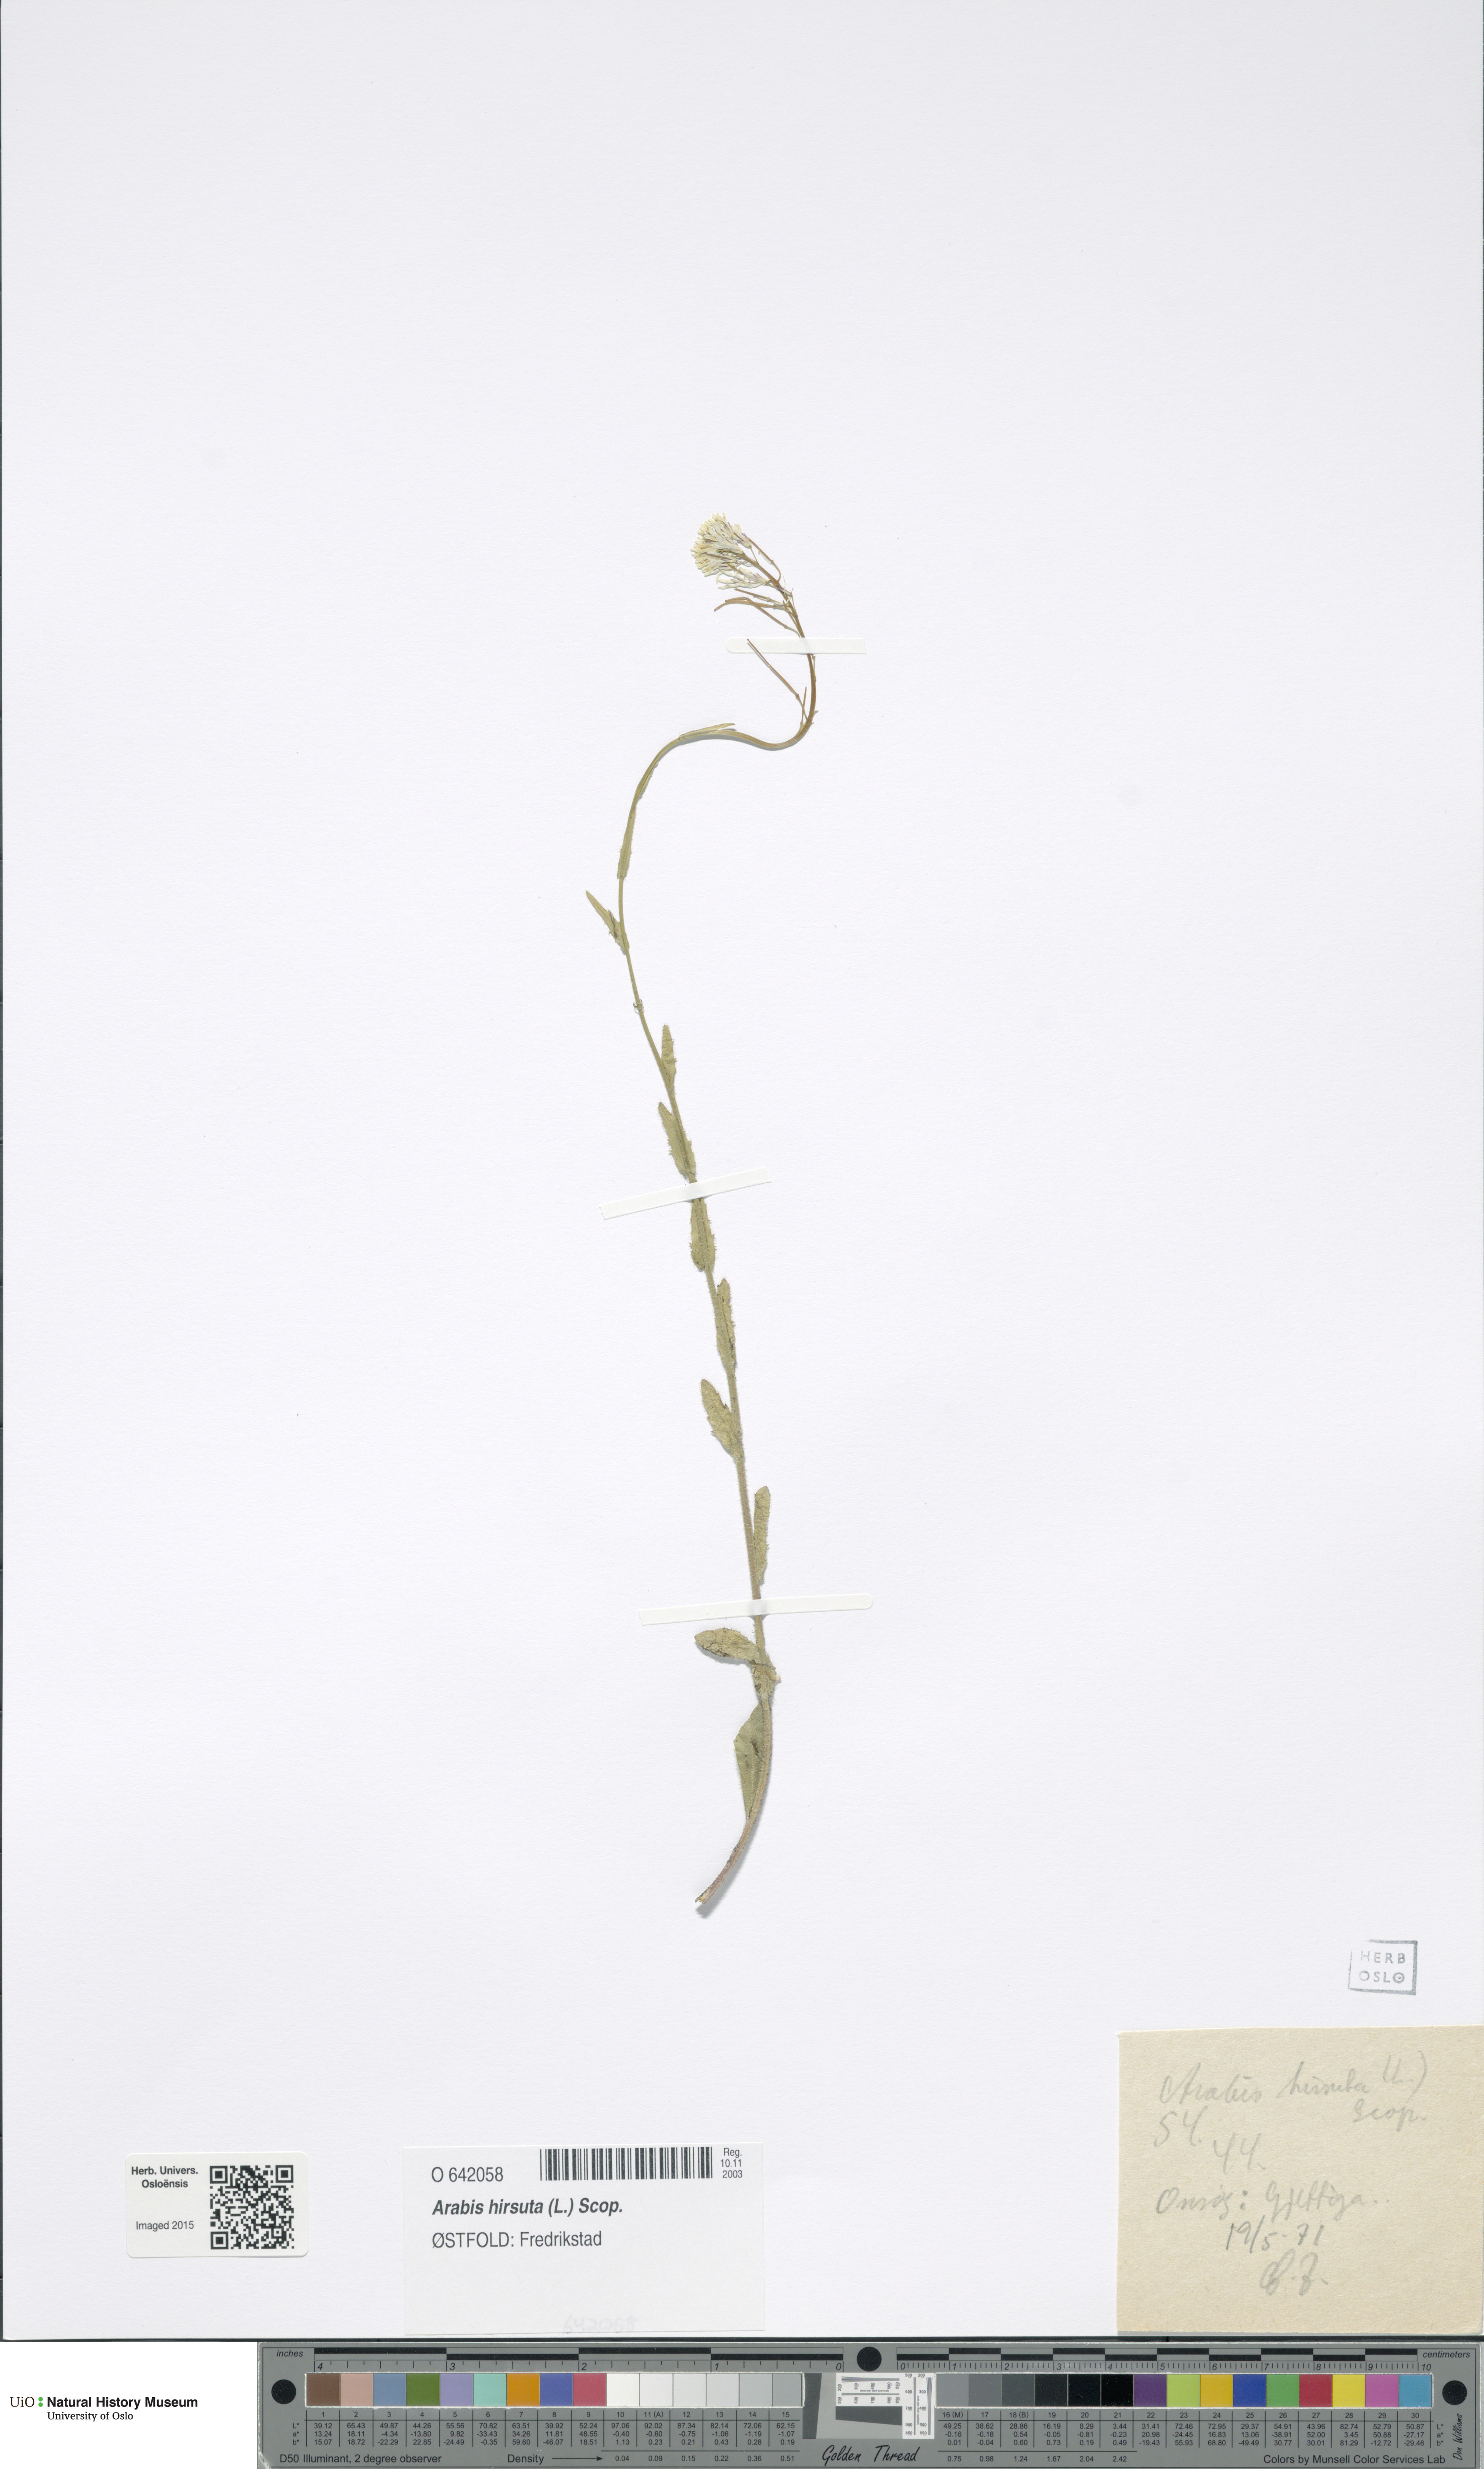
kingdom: Plantae
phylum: Tracheophyta
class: Magnoliopsida
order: Brassicales
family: Brassicaceae
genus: Arabis
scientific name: Arabis hirsuta
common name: Hairy rock-cress
